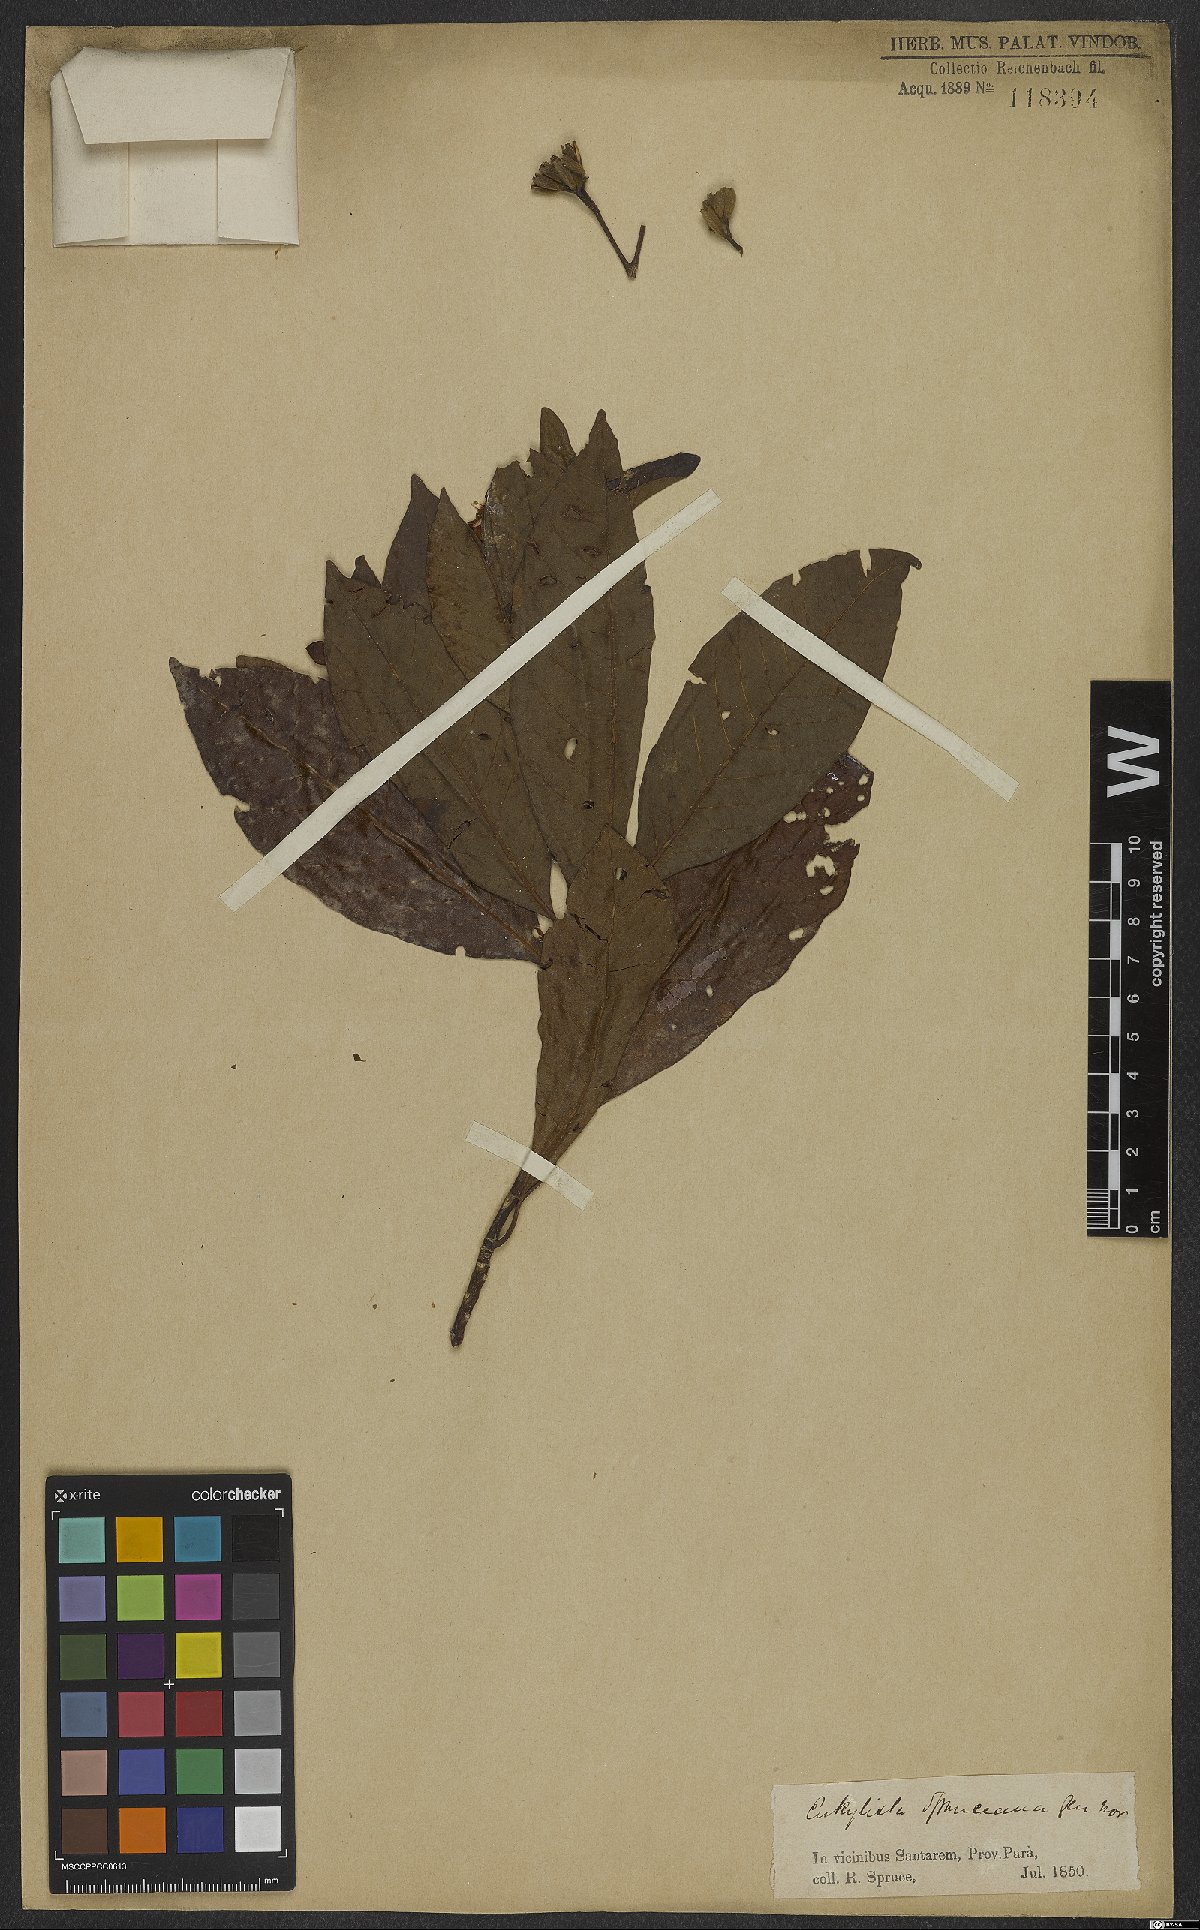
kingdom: Plantae
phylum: Tracheophyta
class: Magnoliopsida
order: Gentianales
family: Rubiaceae
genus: Calycophyllum
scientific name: Calycophyllum spruceanum
